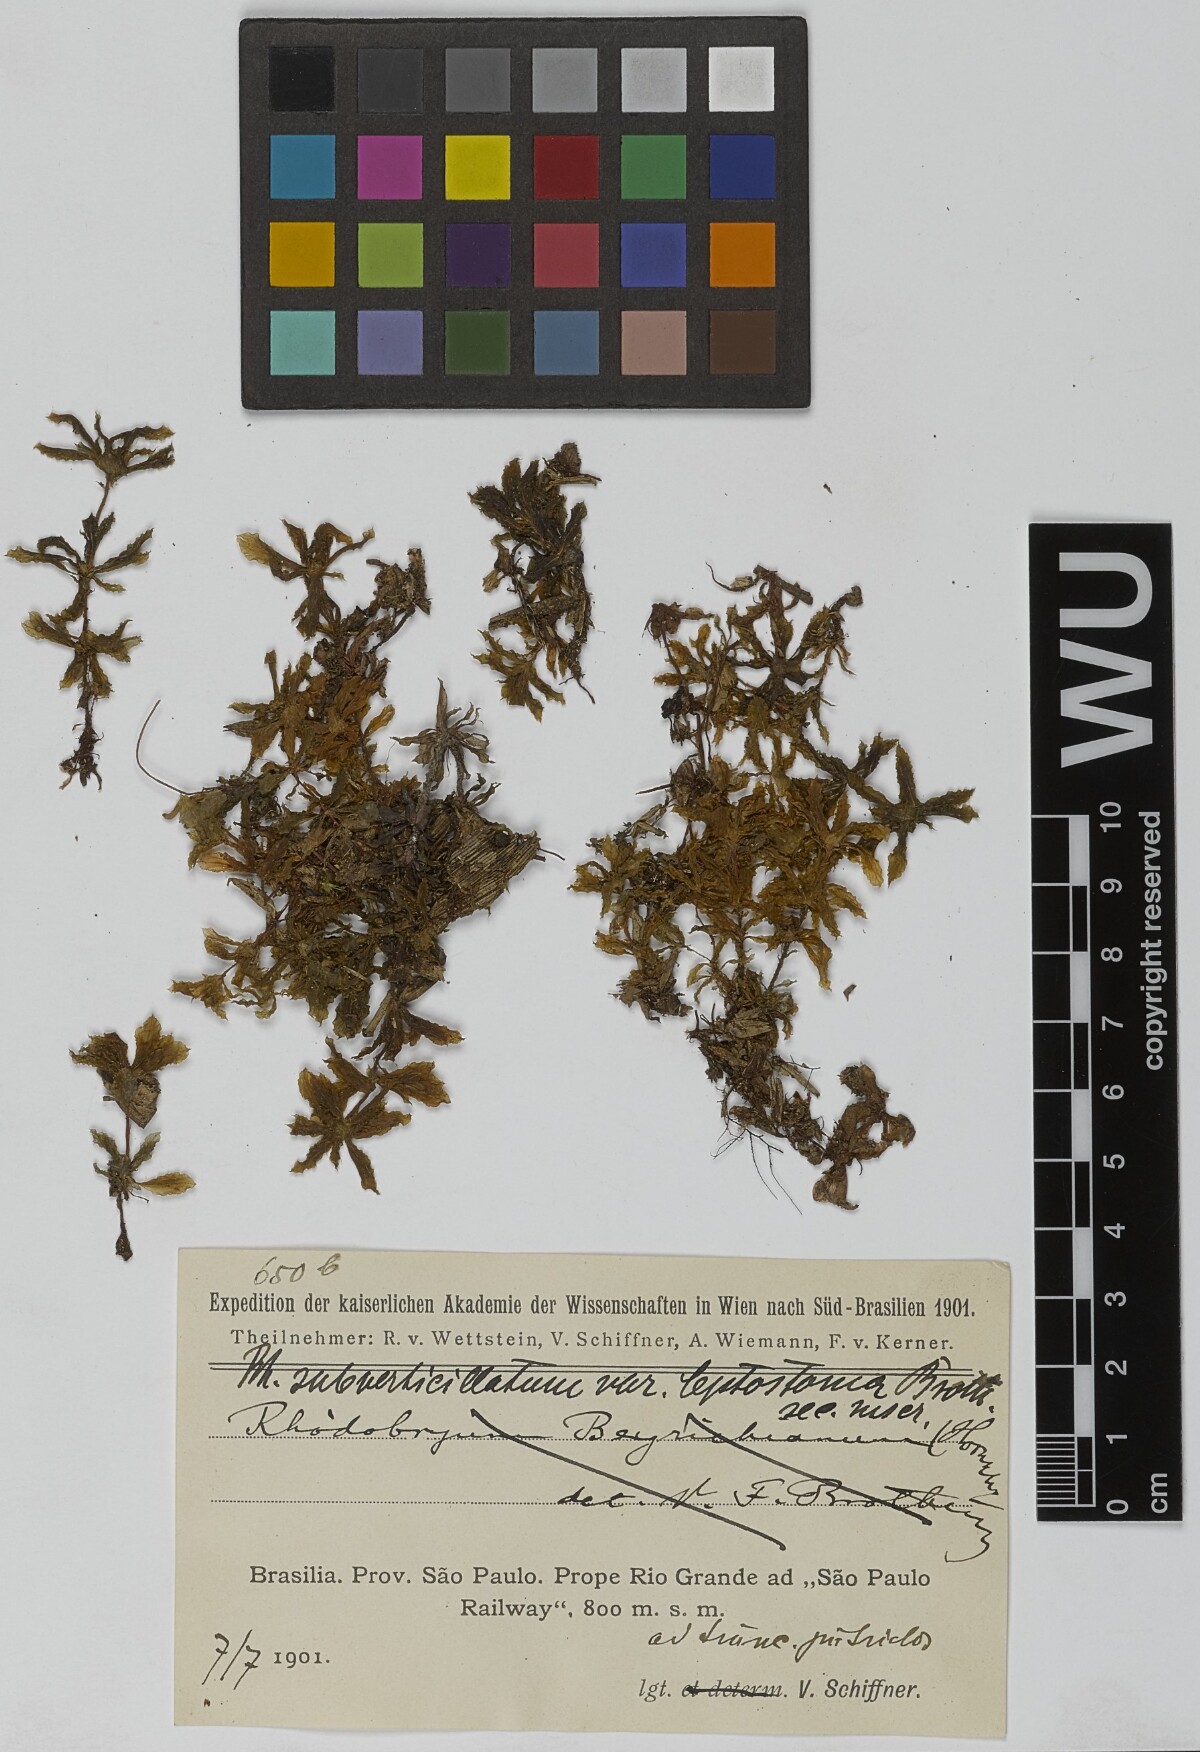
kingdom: Plantae
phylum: Bryophyta
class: Bryopsida
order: Bryales
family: Bryaceae
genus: Rhodobryum
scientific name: Rhodobryum beyrichianum
